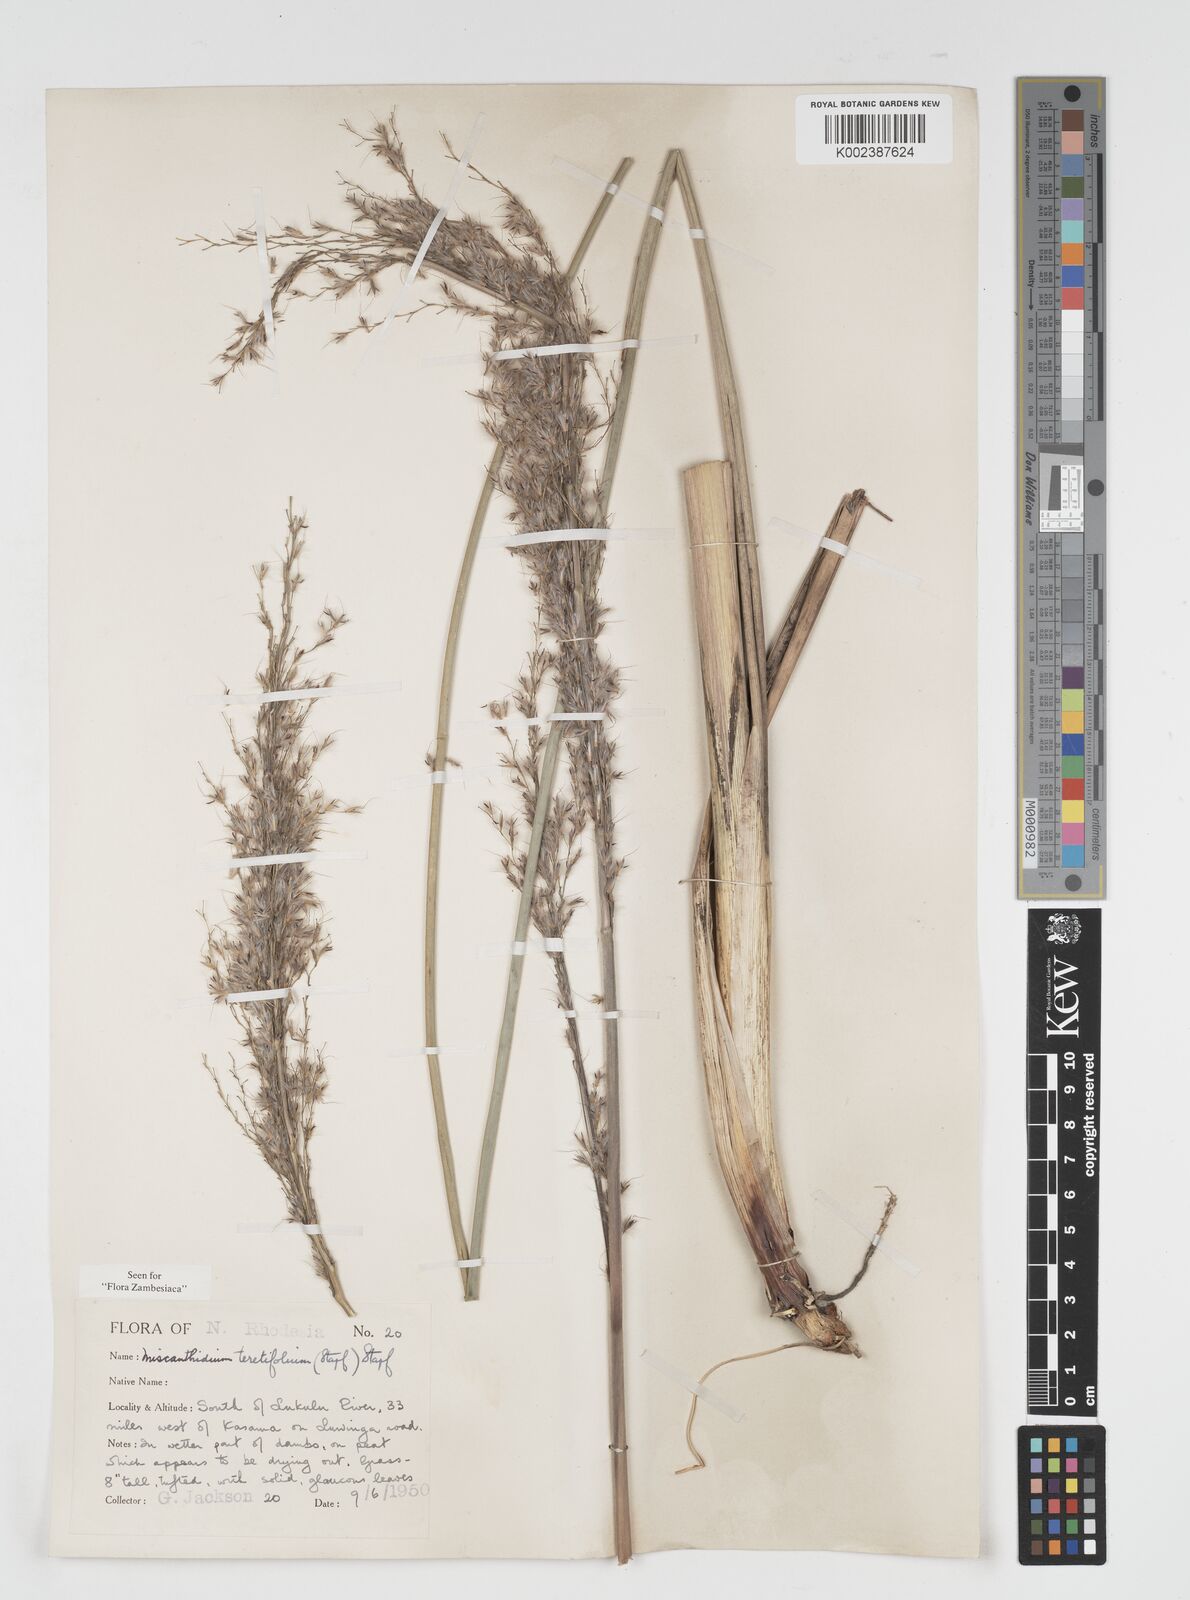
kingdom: Plantae
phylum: Tracheophyta
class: Liliopsida
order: Poales
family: Poaceae
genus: Miscanthidium
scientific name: Miscanthidium junceum
